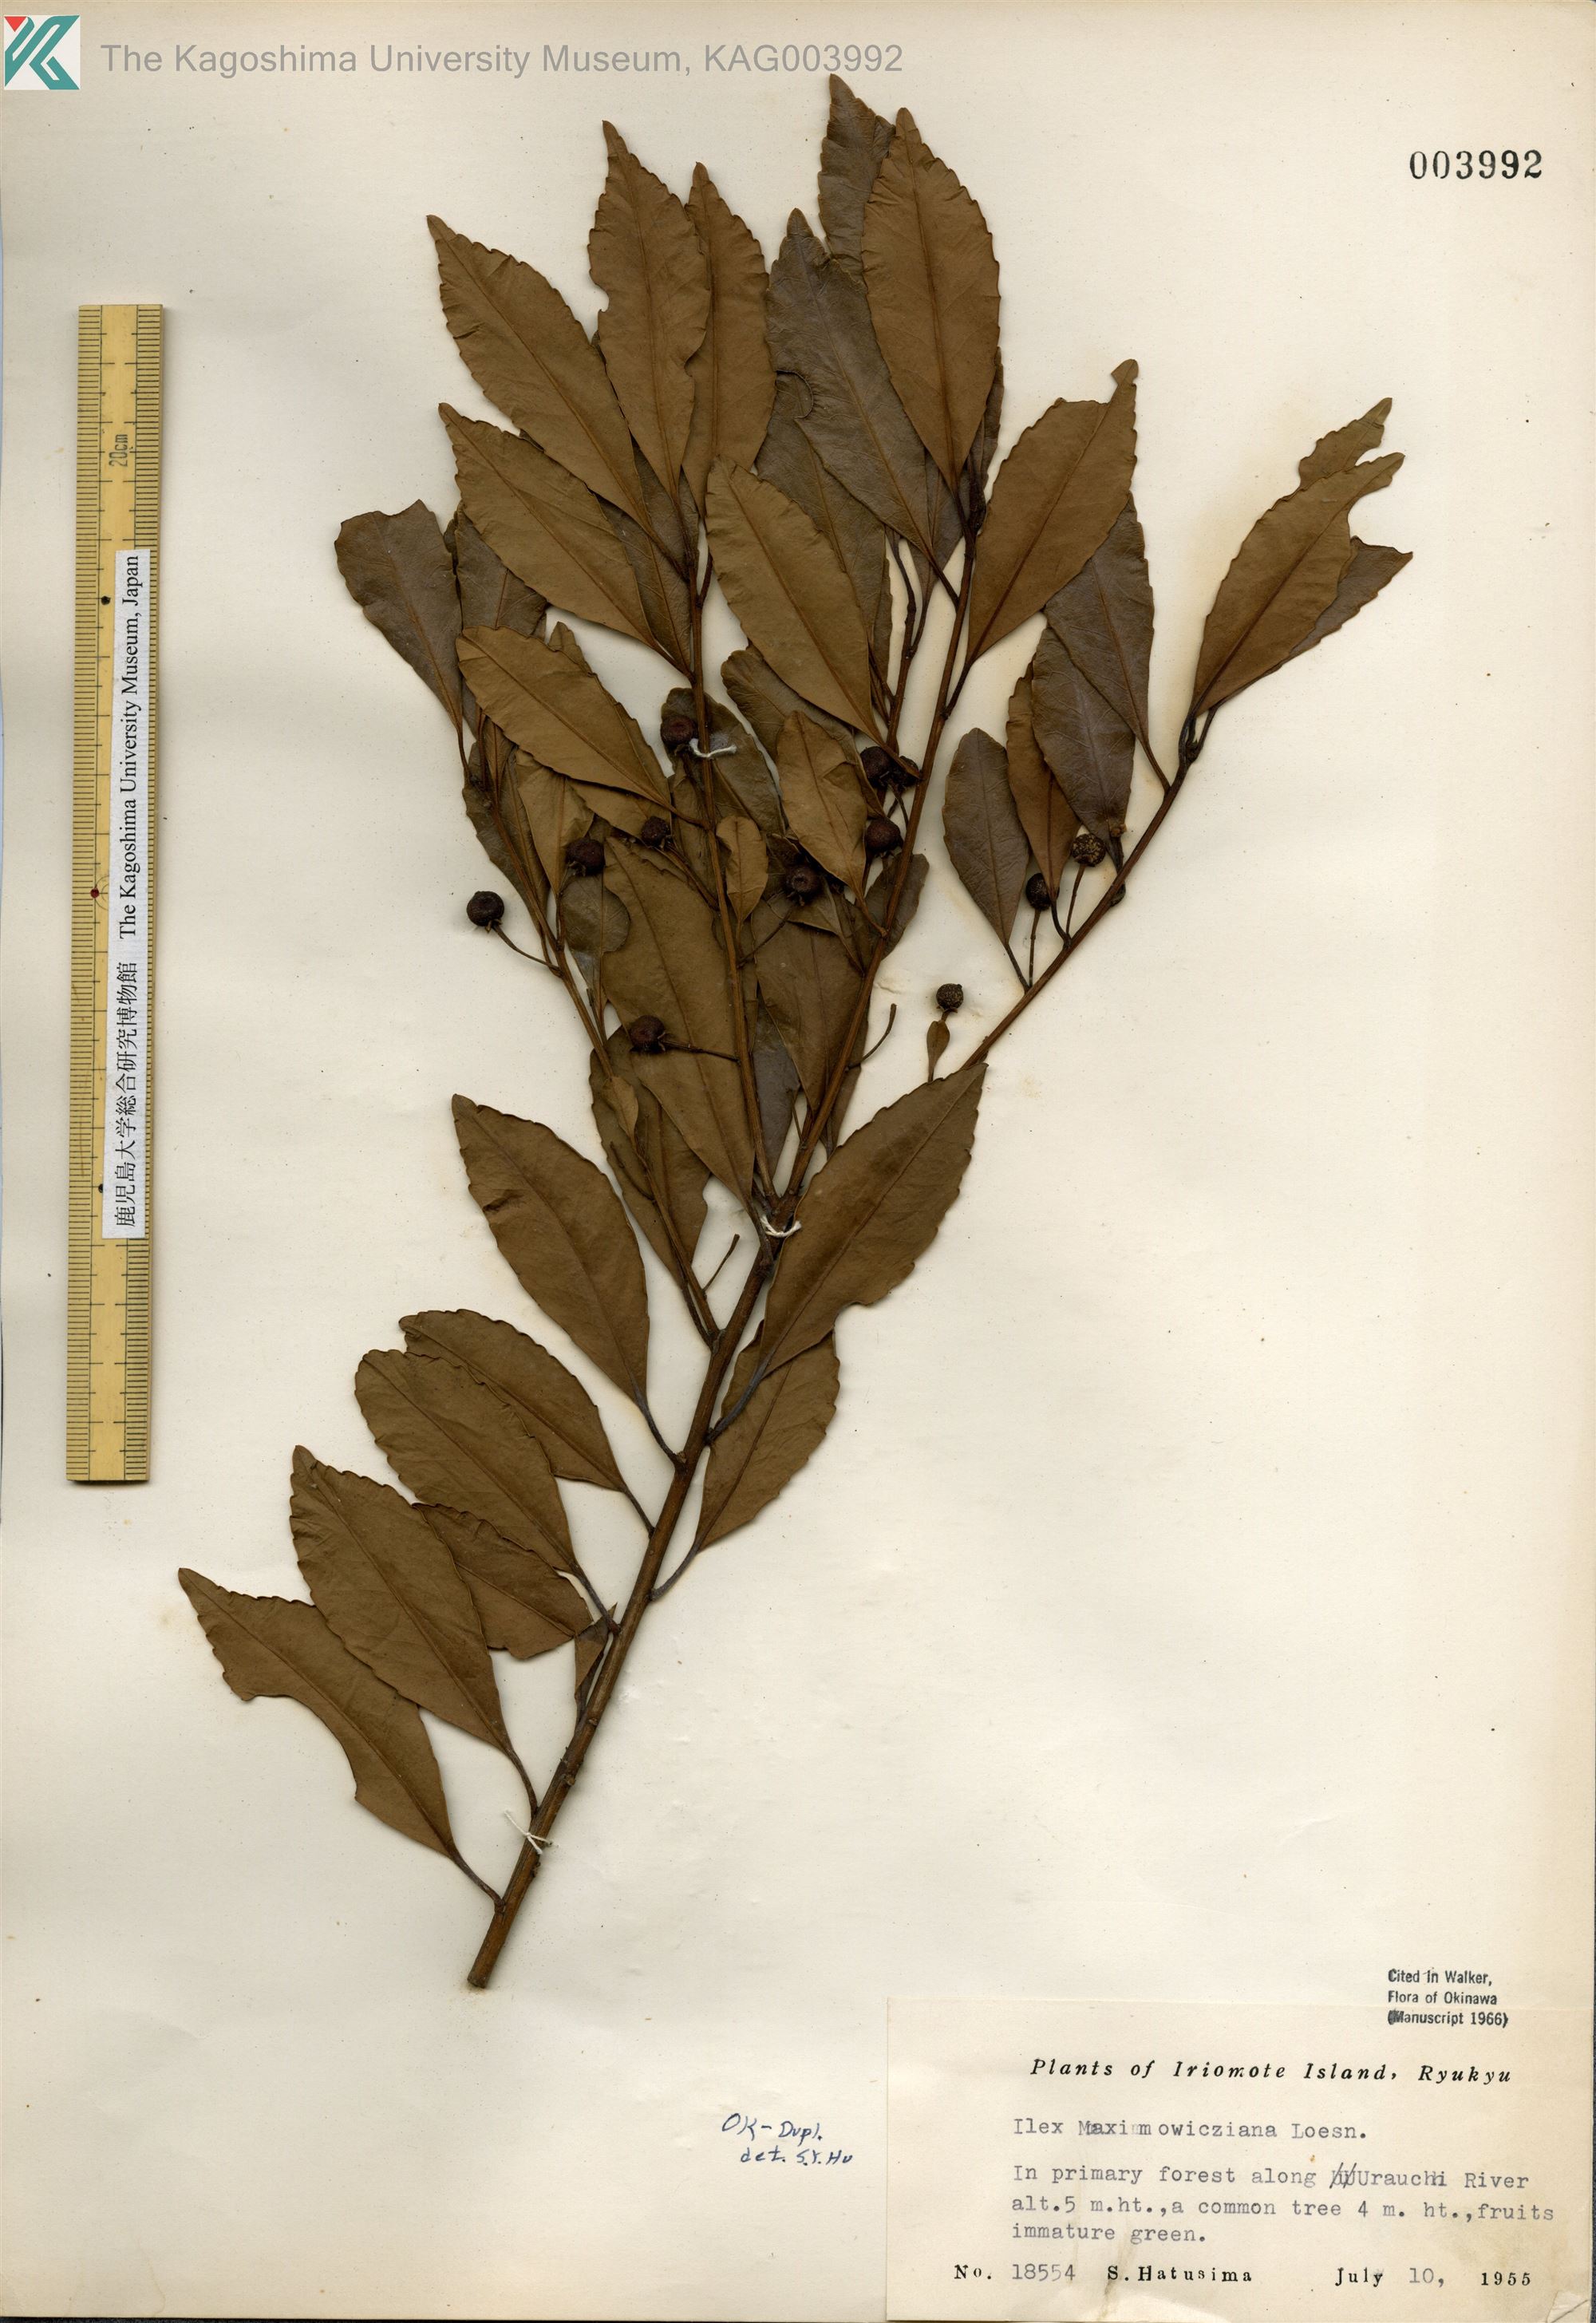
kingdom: Plantae
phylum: Tracheophyta
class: Magnoliopsida
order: Aquifoliales
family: Aquifoliaceae
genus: Ilex
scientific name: Ilex maximowicziana
